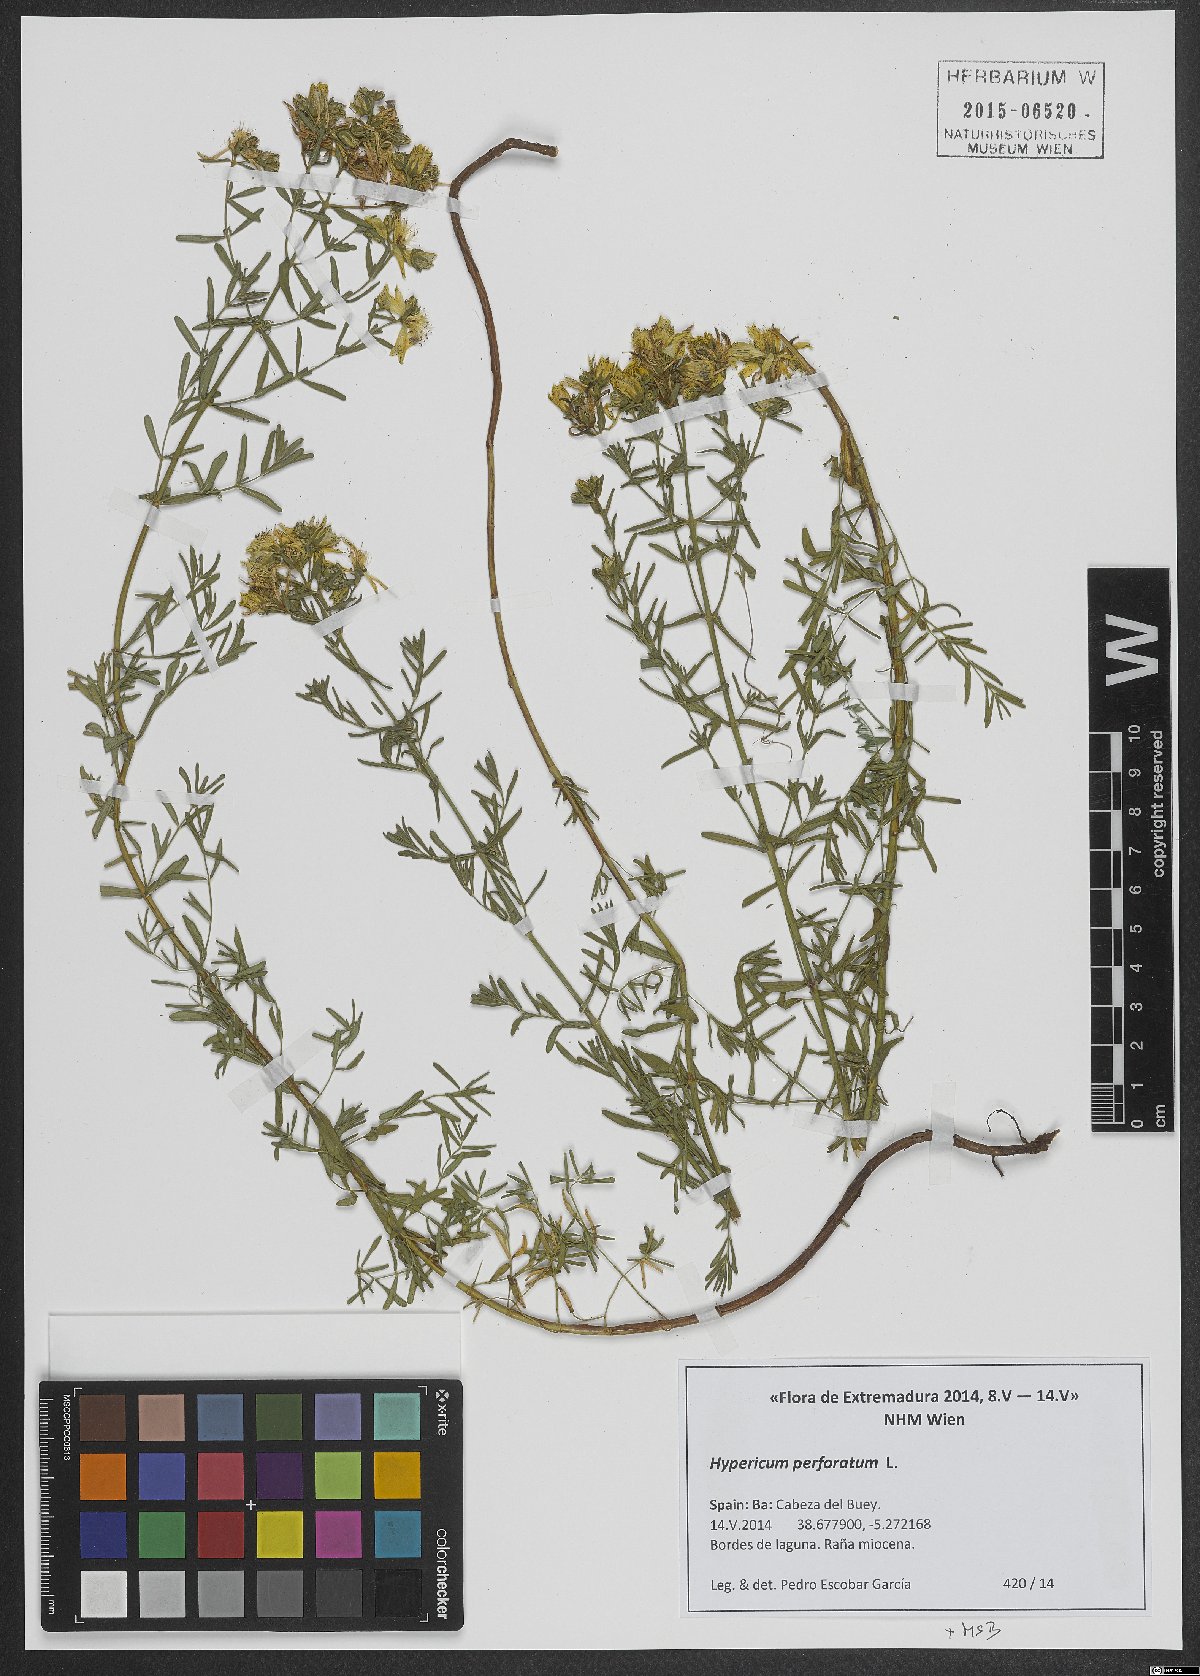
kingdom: Plantae
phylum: Tracheophyta
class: Magnoliopsida
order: Malpighiales
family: Hypericaceae
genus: Hypericum
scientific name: Hypericum perforatum
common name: Common st. johnswort
